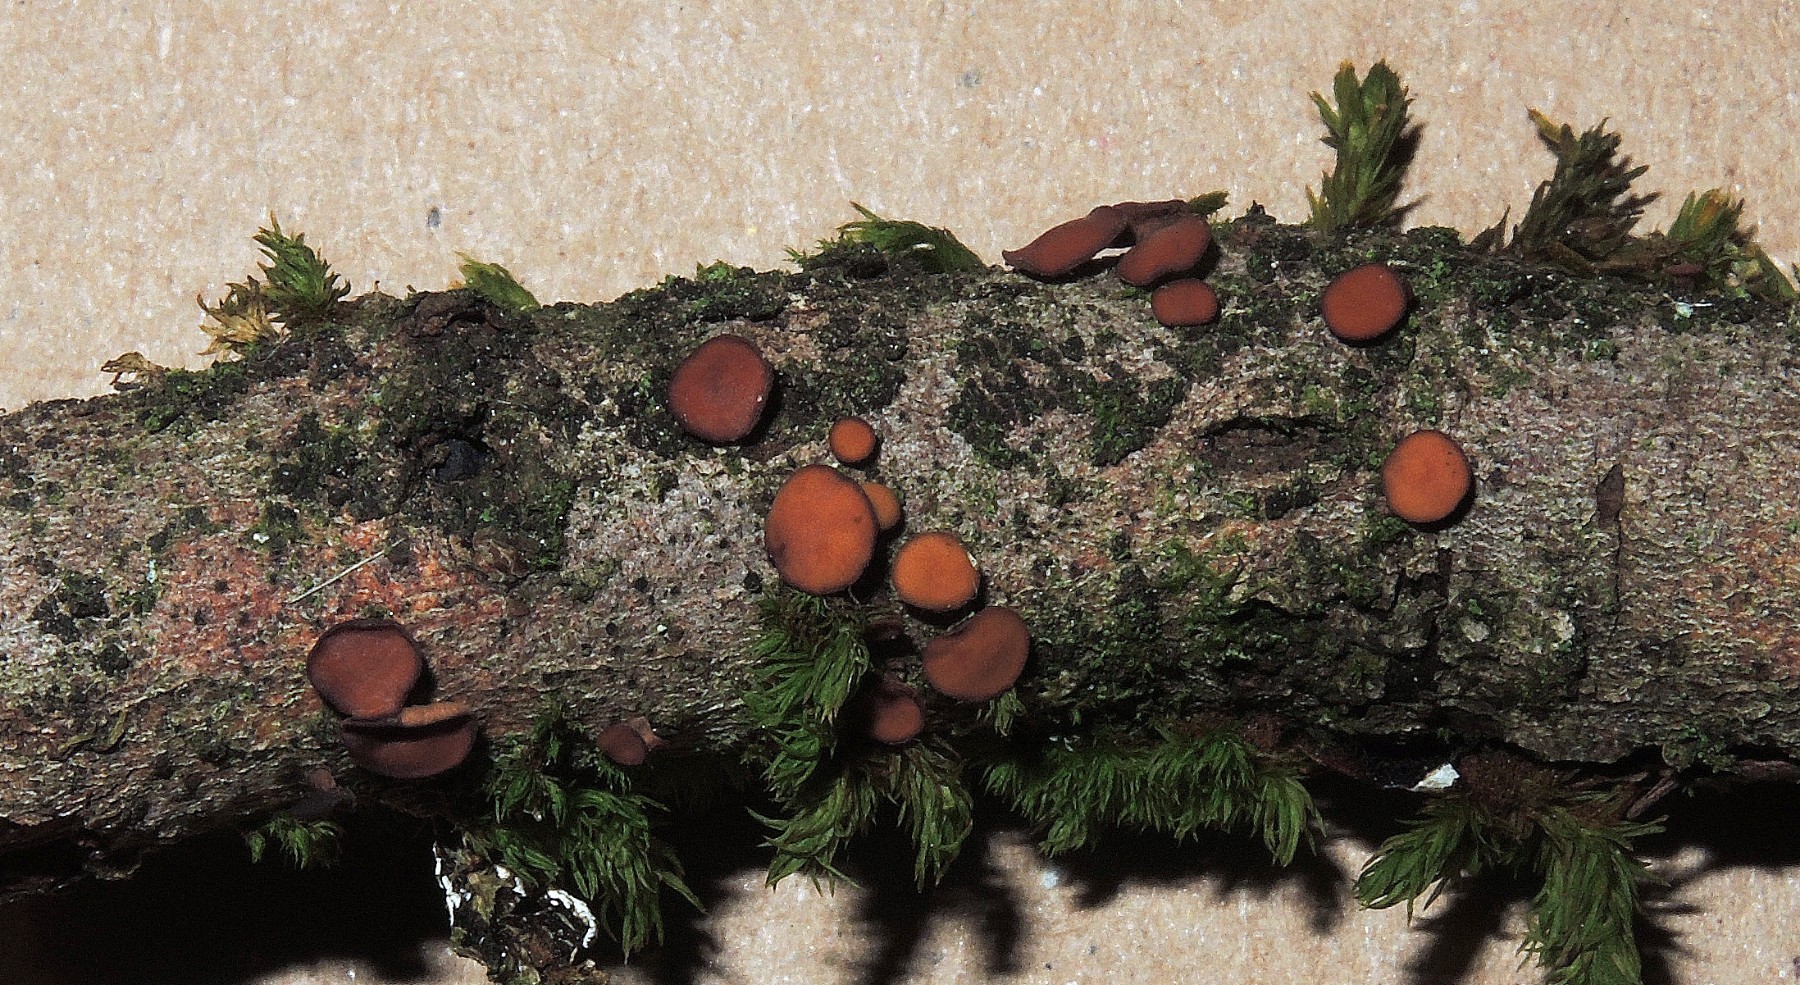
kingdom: Fungi
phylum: Ascomycota
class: Leotiomycetes
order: Helotiales
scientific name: Helotiales
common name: stilkskiveordenen
